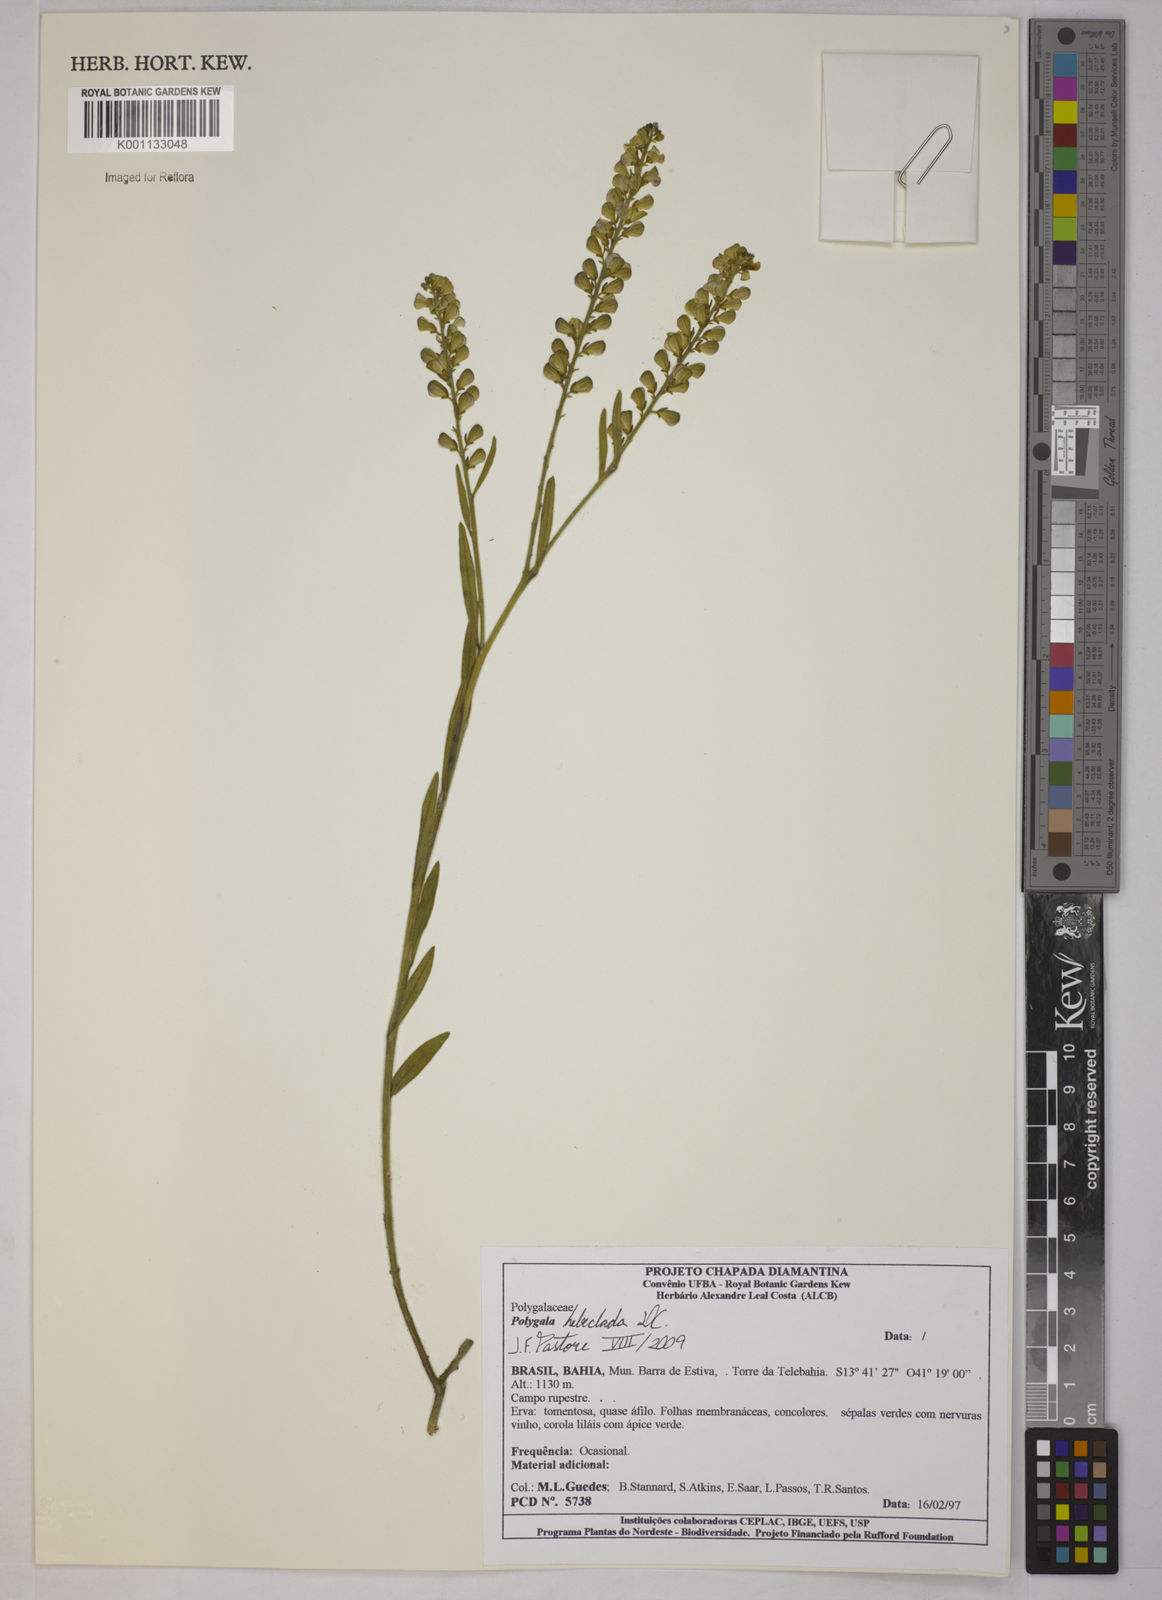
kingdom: Plantae
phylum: Tracheophyta
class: Magnoliopsida
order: Fabales
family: Polygalaceae
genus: Asemeia
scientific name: Asemeia hebeclada
